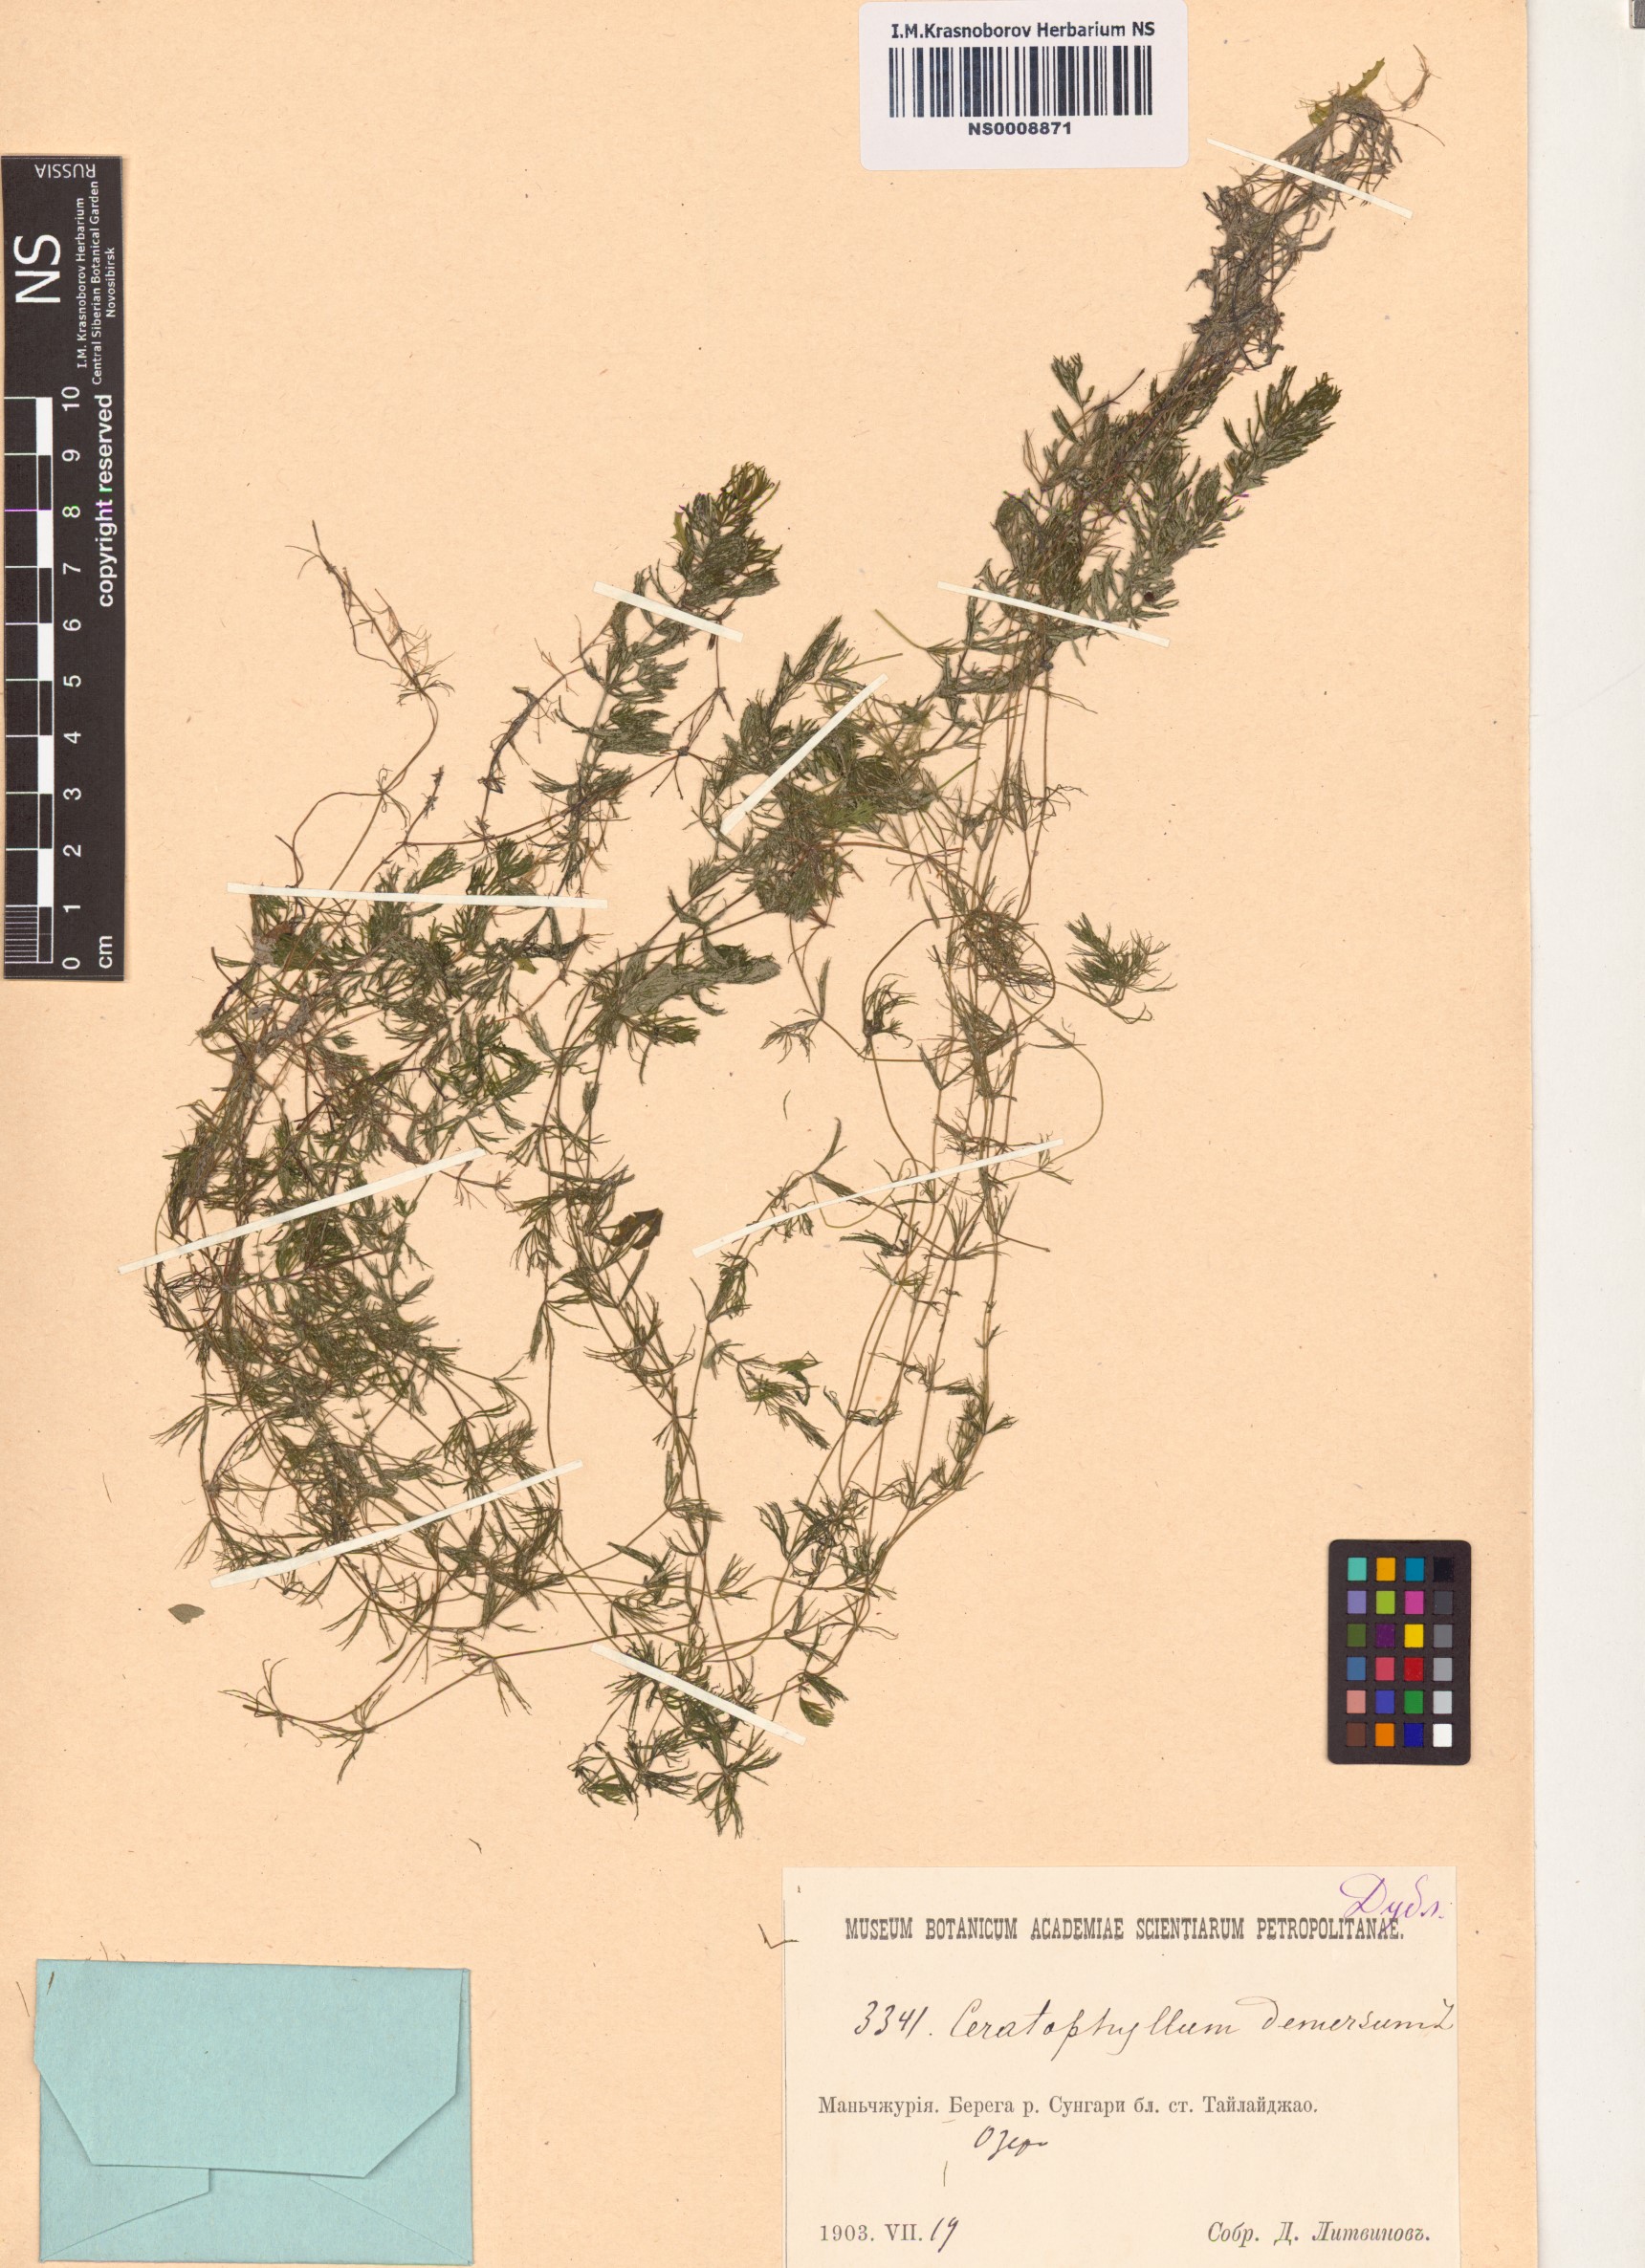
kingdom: Plantae
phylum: Tracheophyta
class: Magnoliopsida
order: Ceratophyllales
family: Ceratophyllaceae
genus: Ceratophyllum
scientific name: Ceratophyllum demersum
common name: Rigid hornwort
